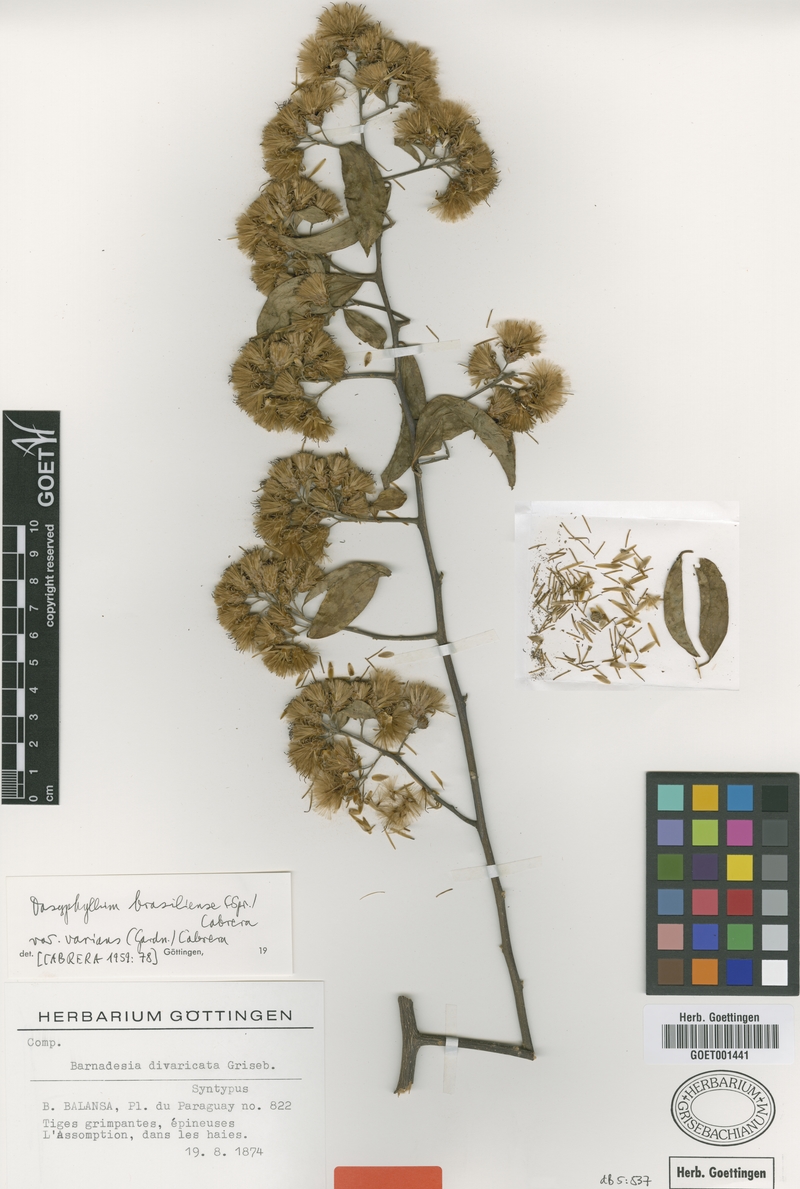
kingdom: Plantae
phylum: Tracheophyta
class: Magnoliopsida
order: Asterales
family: Asteraceae
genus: Dasyphyllum
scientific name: Dasyphyllum varians
